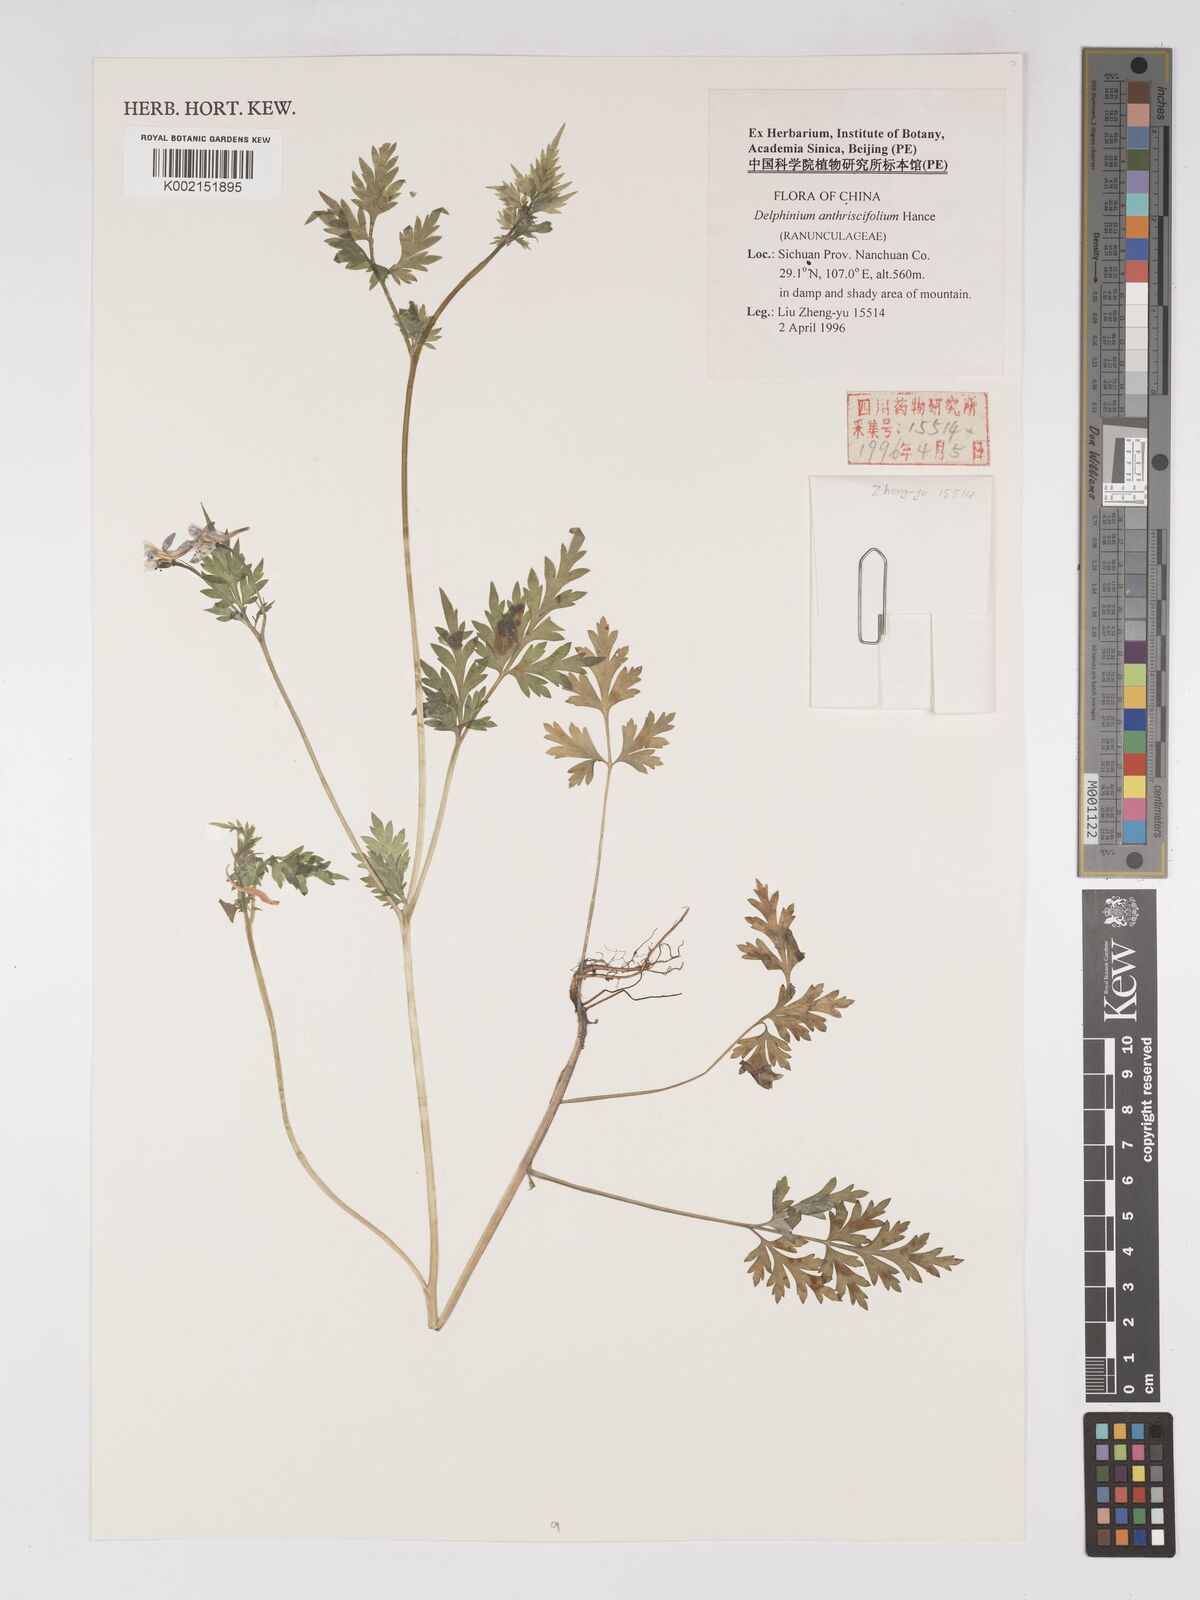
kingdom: Plantae
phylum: Tracheophyta
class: Magnoliopsida
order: Ranunculales
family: Ranunculaceae
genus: Delphinium
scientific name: Delphinium anthriscifolium
